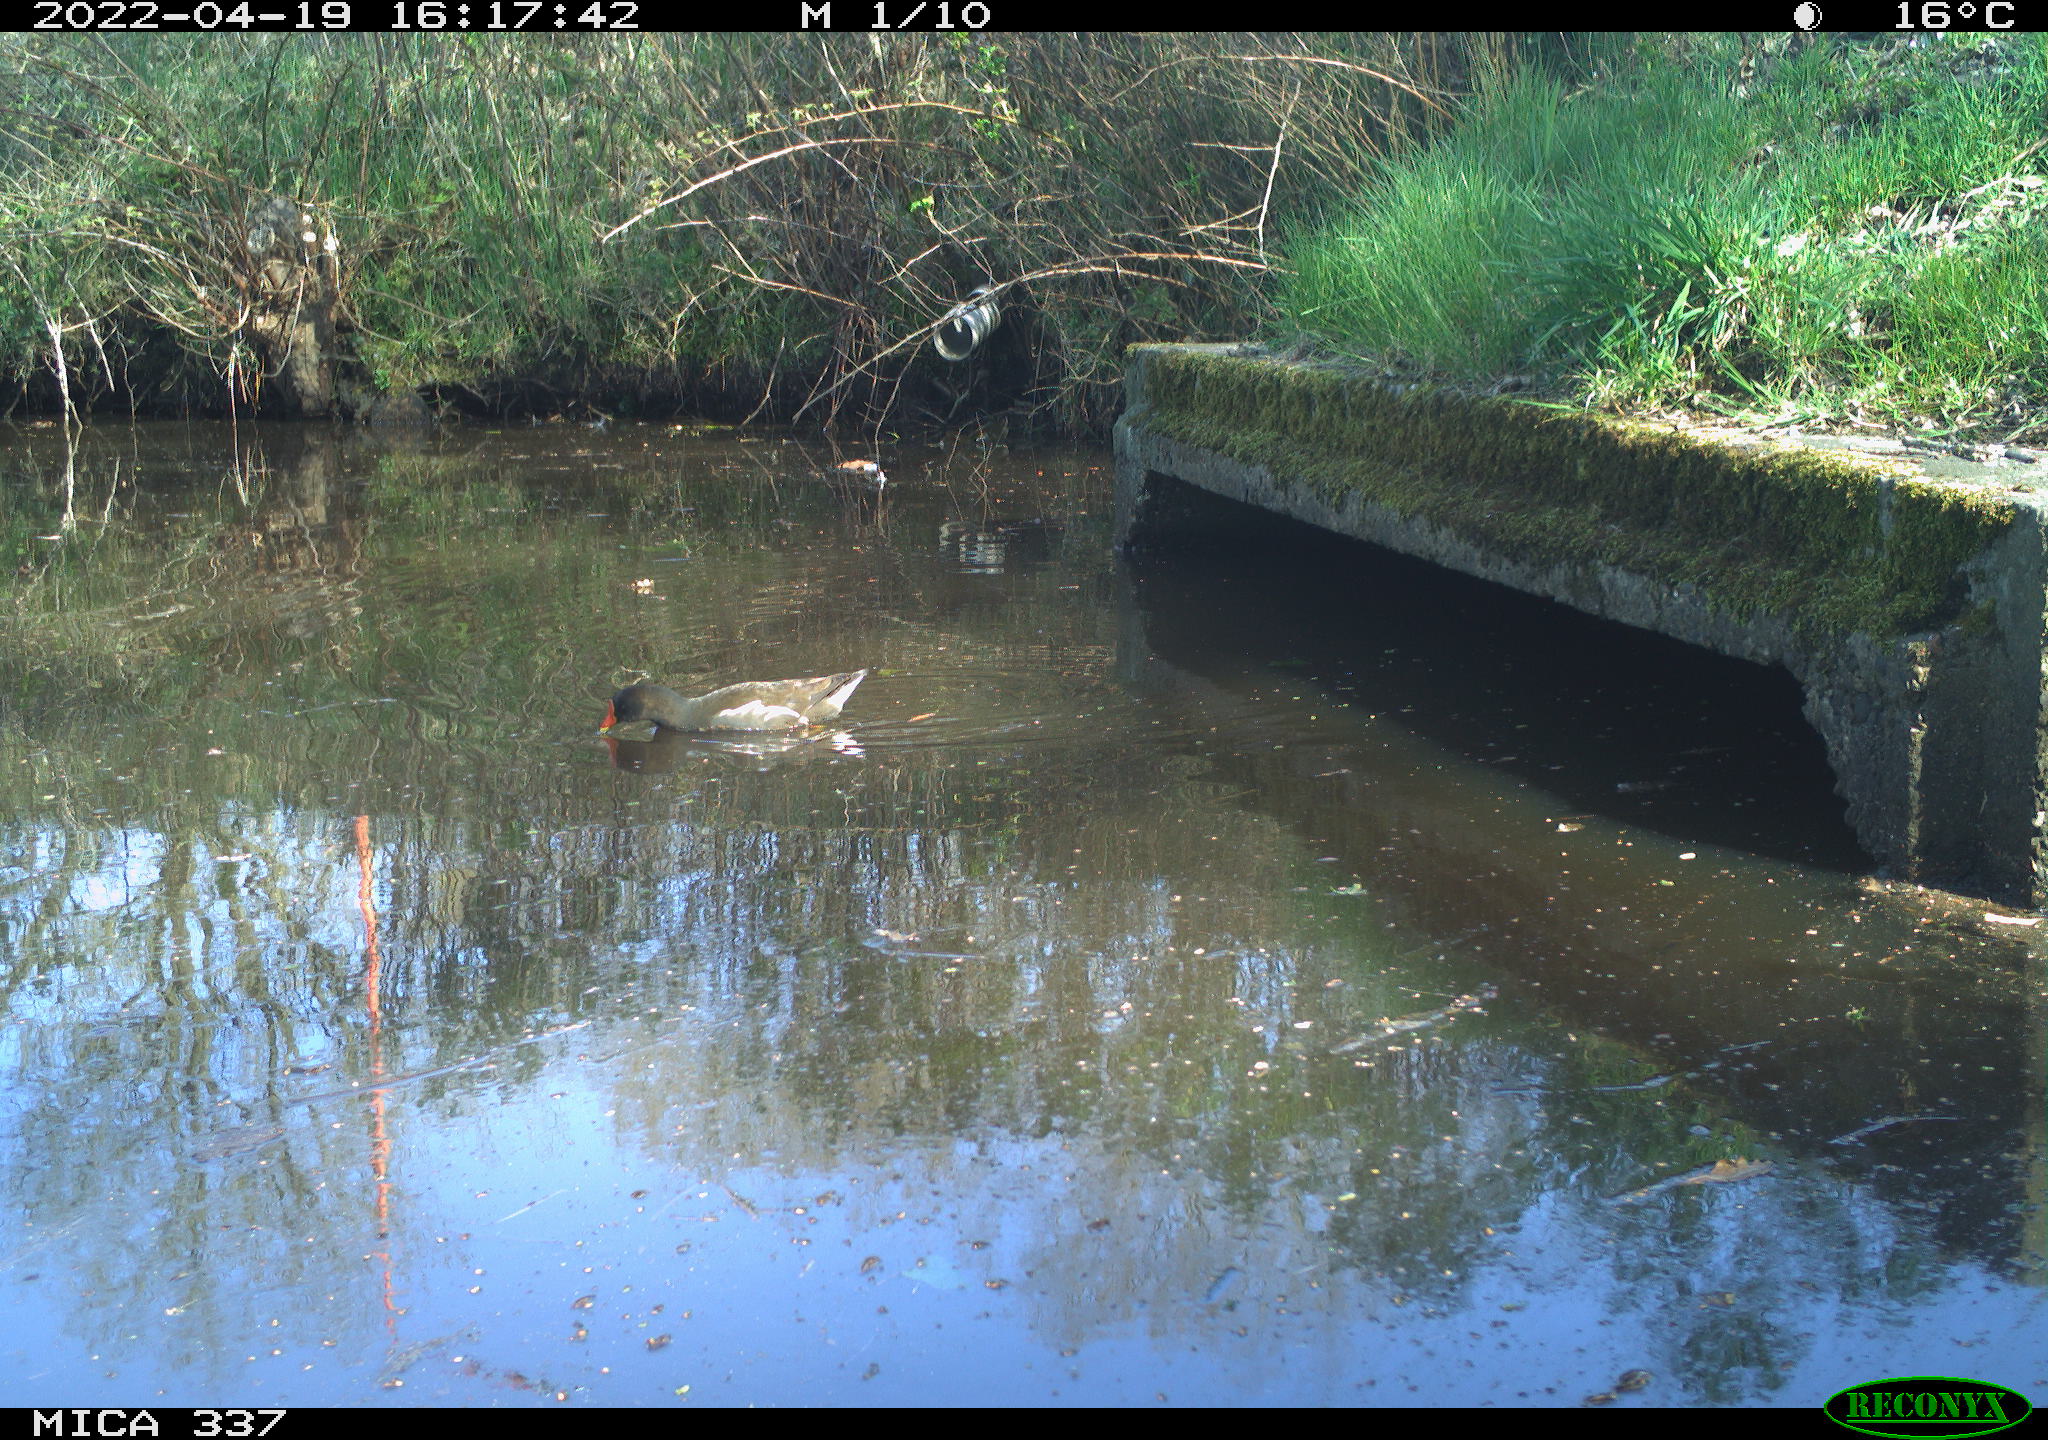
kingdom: Animalia
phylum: Chordata
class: Aves
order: Gruiformes
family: Rallidae
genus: Gallinula
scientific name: Gallinula chloropus
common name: Common moorhen
